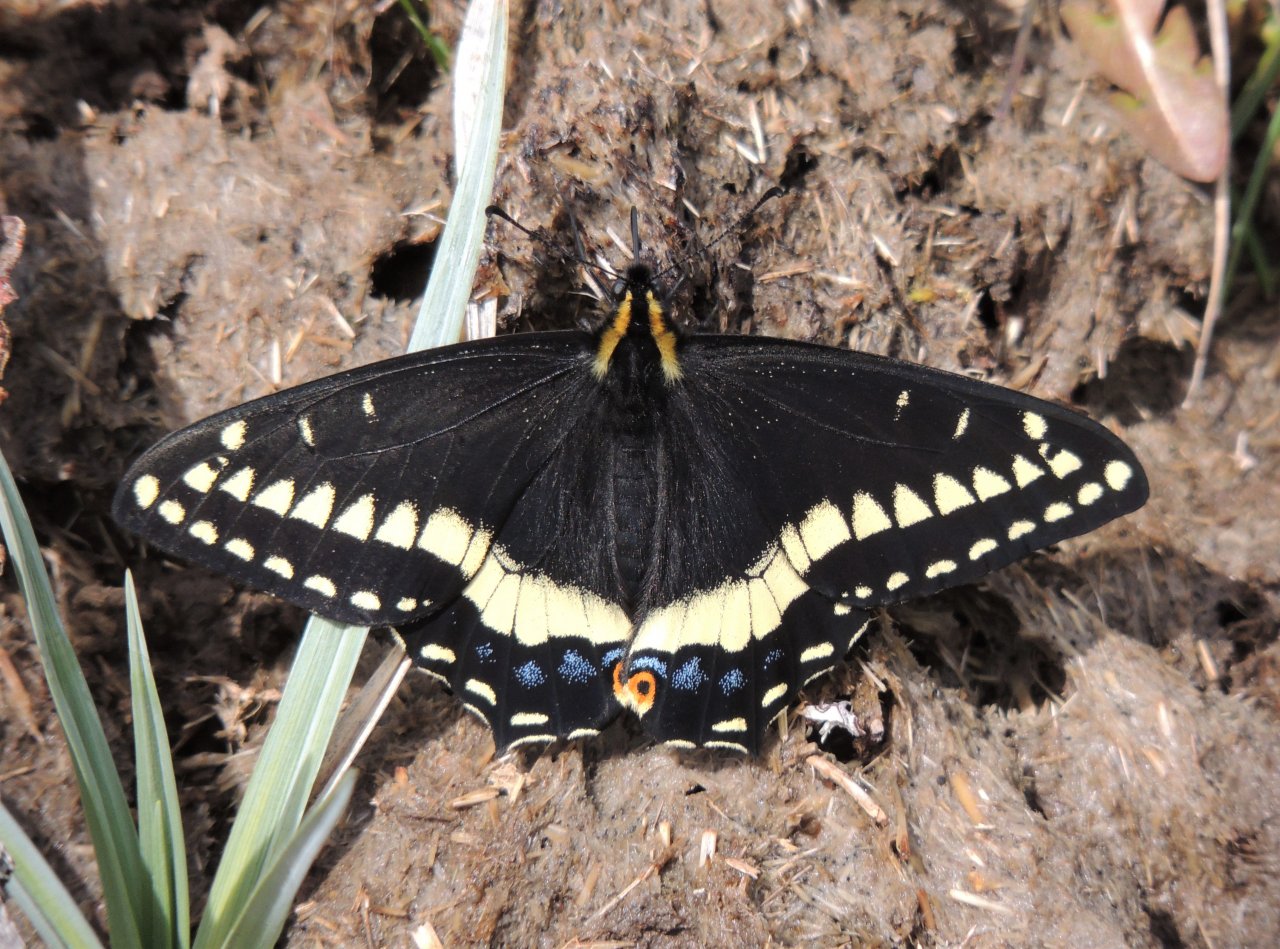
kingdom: Animalia
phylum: Arthropoda
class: Insecta
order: Lepidoptera
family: Papilionidae
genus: Papilio
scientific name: Papilio indra
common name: Indra Swallowtail
